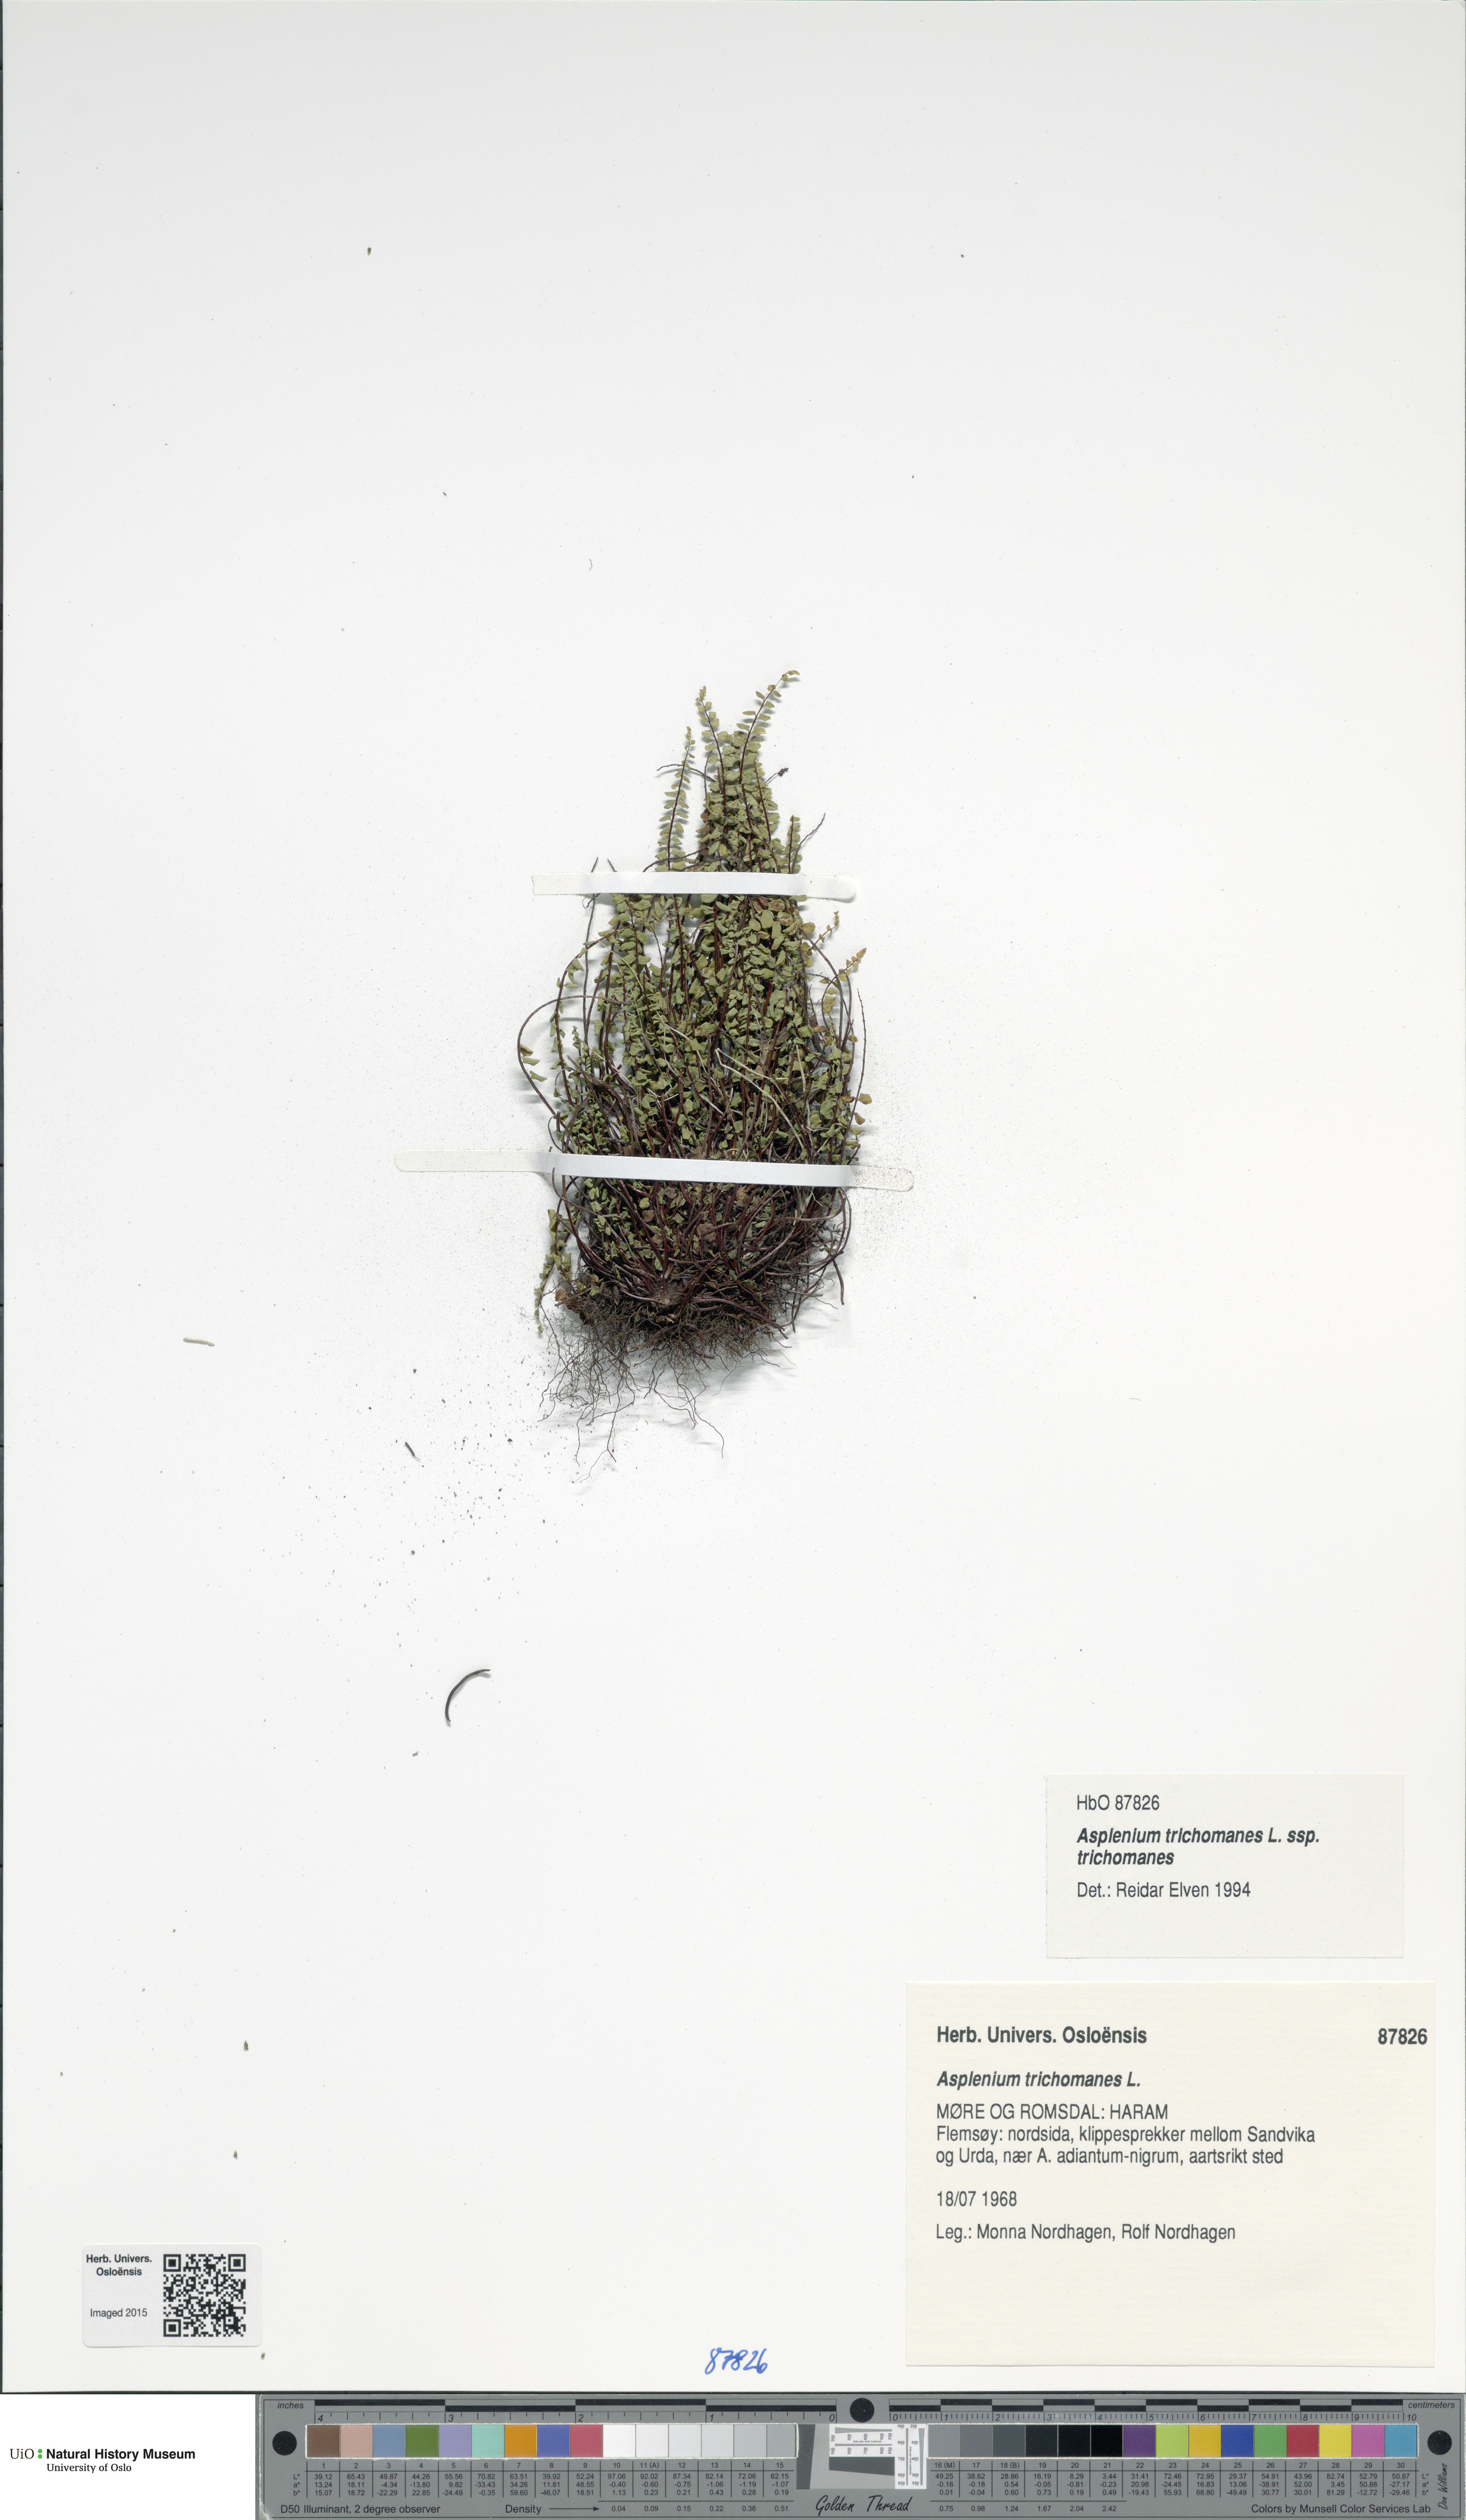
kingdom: Plantae
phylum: Tracheophyta
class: Polypodiopsida
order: Polypodiales
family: Aspleniaceae
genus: Asplenium
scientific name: Asplenium trichomanes
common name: Maidenhair spleenwort
